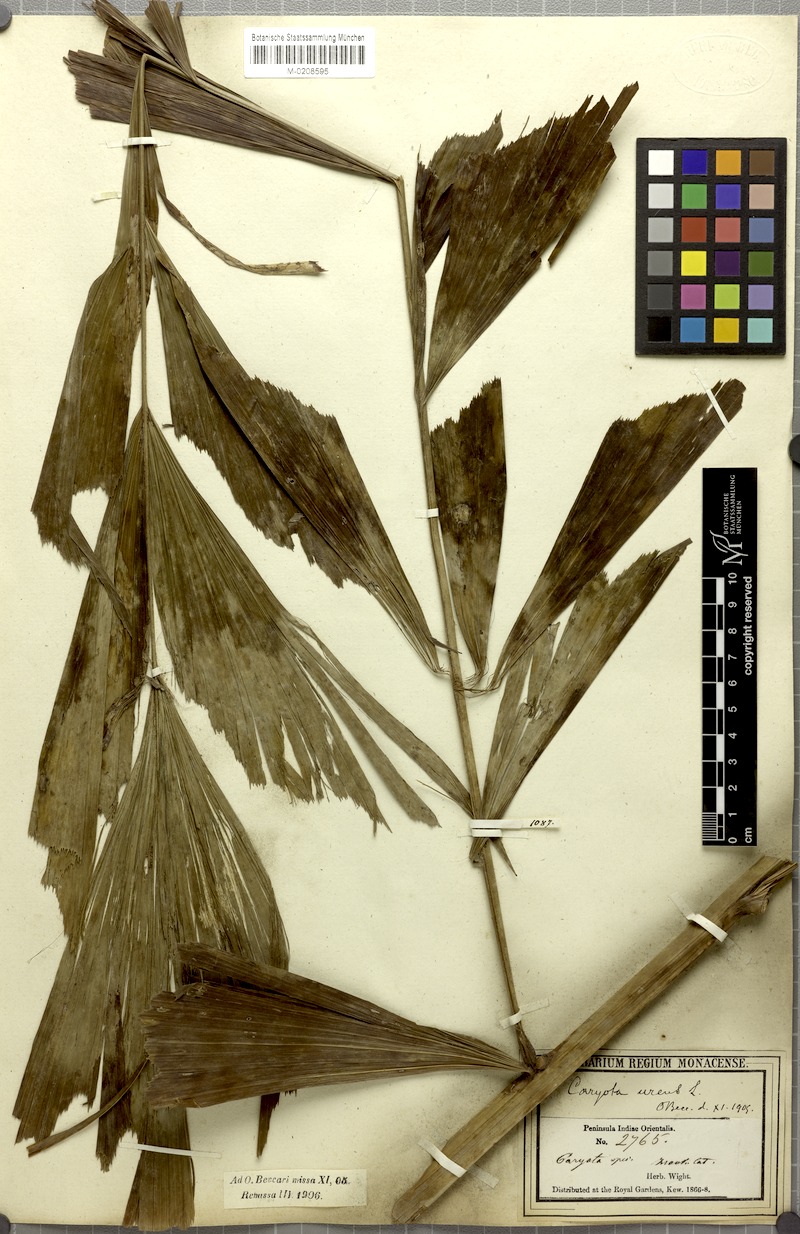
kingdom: Plantae
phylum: Tracheophyta
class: Liliopsida
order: Arecales
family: Arecaceae
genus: Caryota
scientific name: Caryota urens
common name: Jaggery palm
